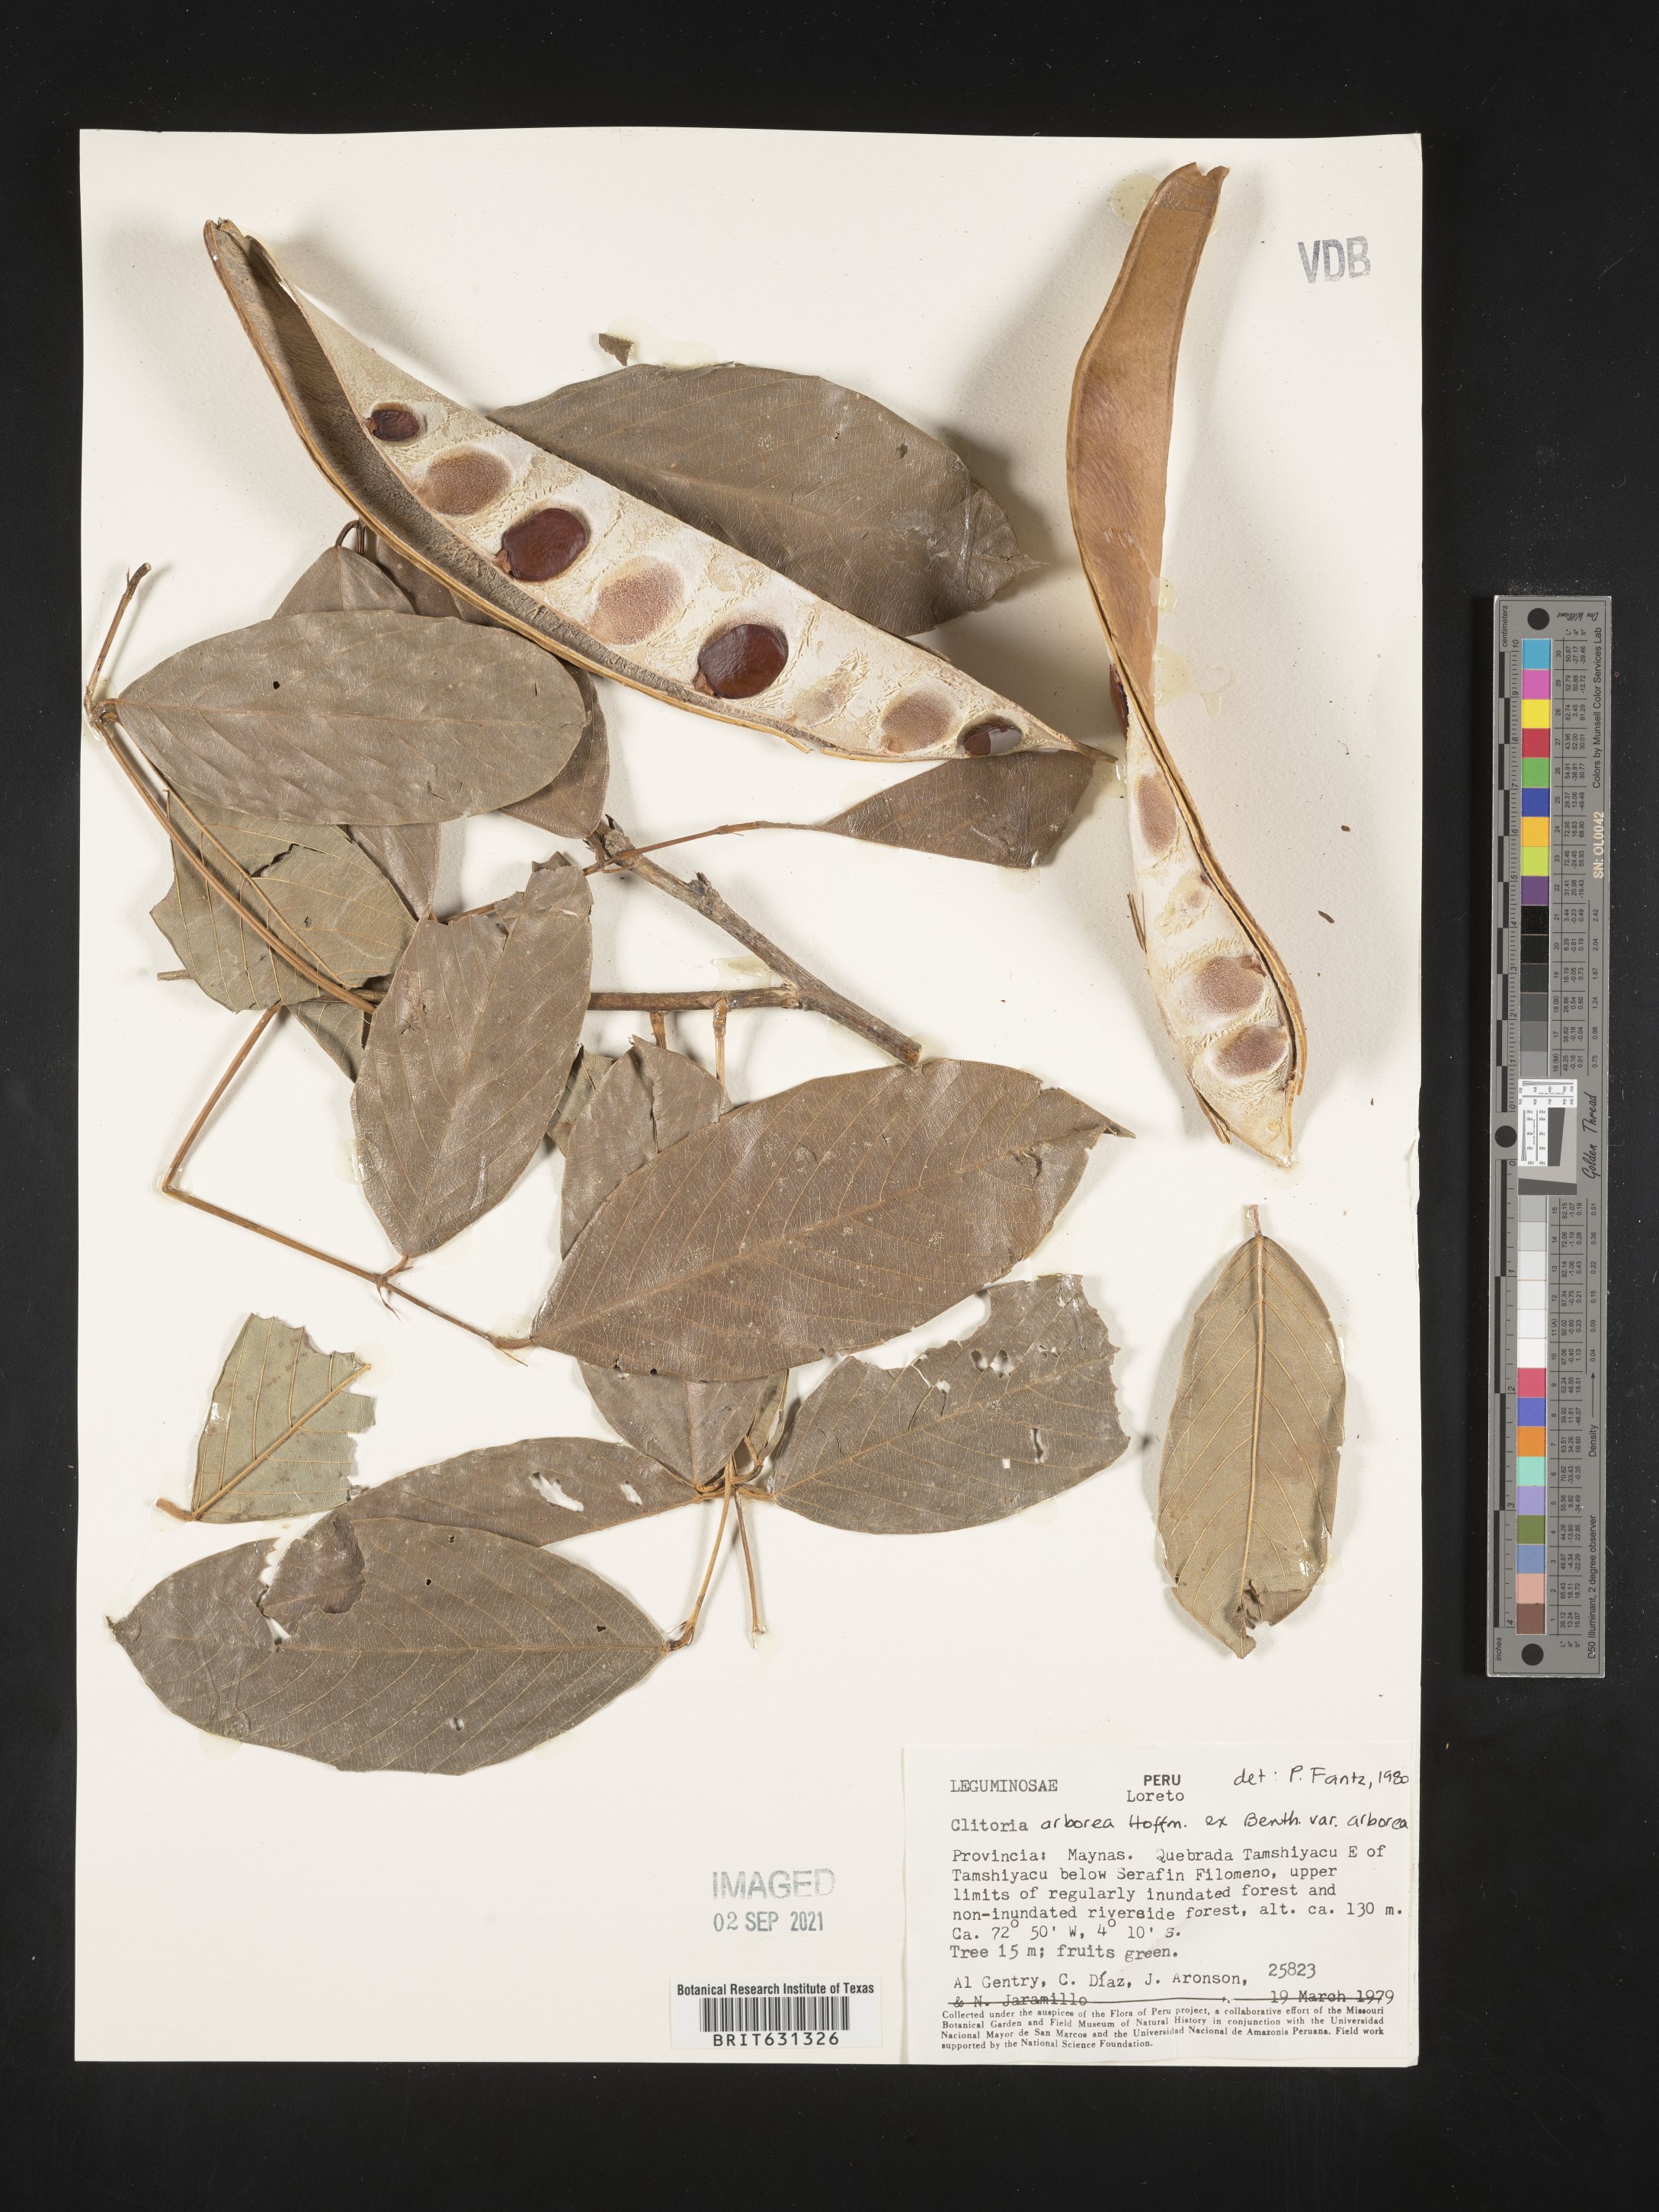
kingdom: Plantae
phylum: Tracheophyta
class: Magnoliopsida
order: Fabales
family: Fabaceae
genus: Clitoria
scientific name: Clitoria arborea
